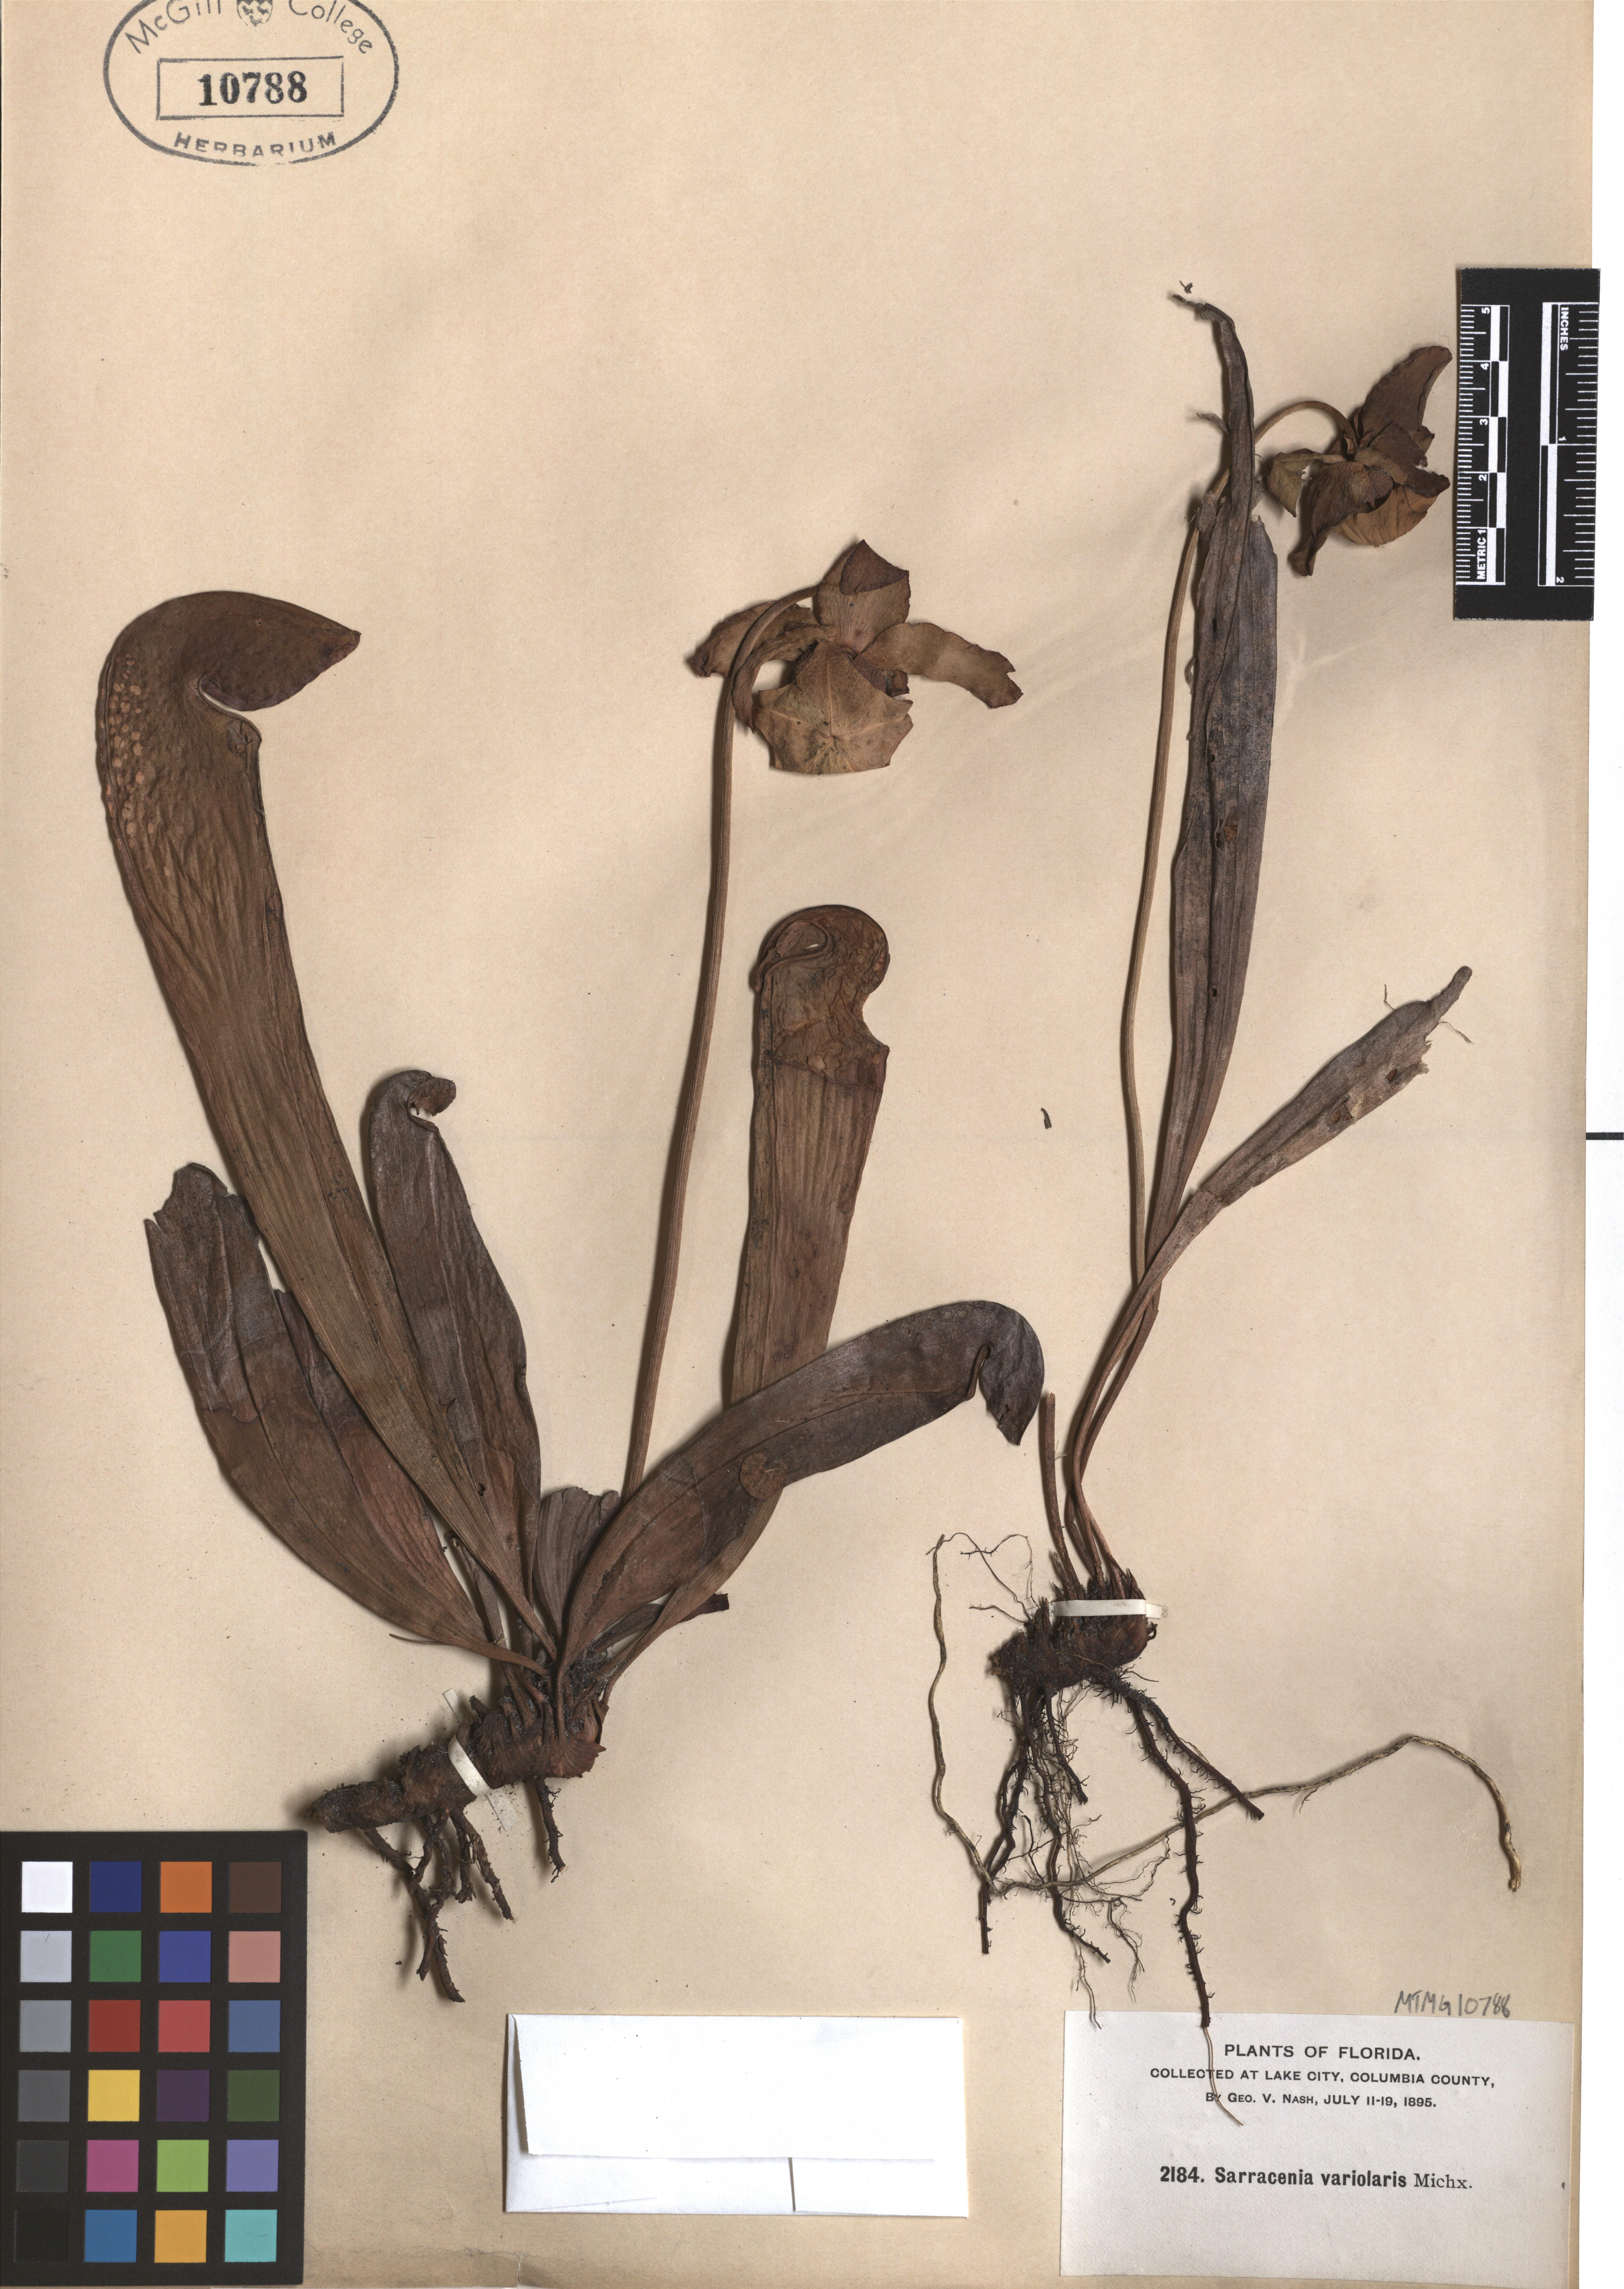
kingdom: Plantae
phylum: Tracheophyta
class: Magnoliopsida
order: Ericales
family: Sarraceniaceae
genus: Sarracenia
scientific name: Sarracenia minor
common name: Rainhat-trumpet
